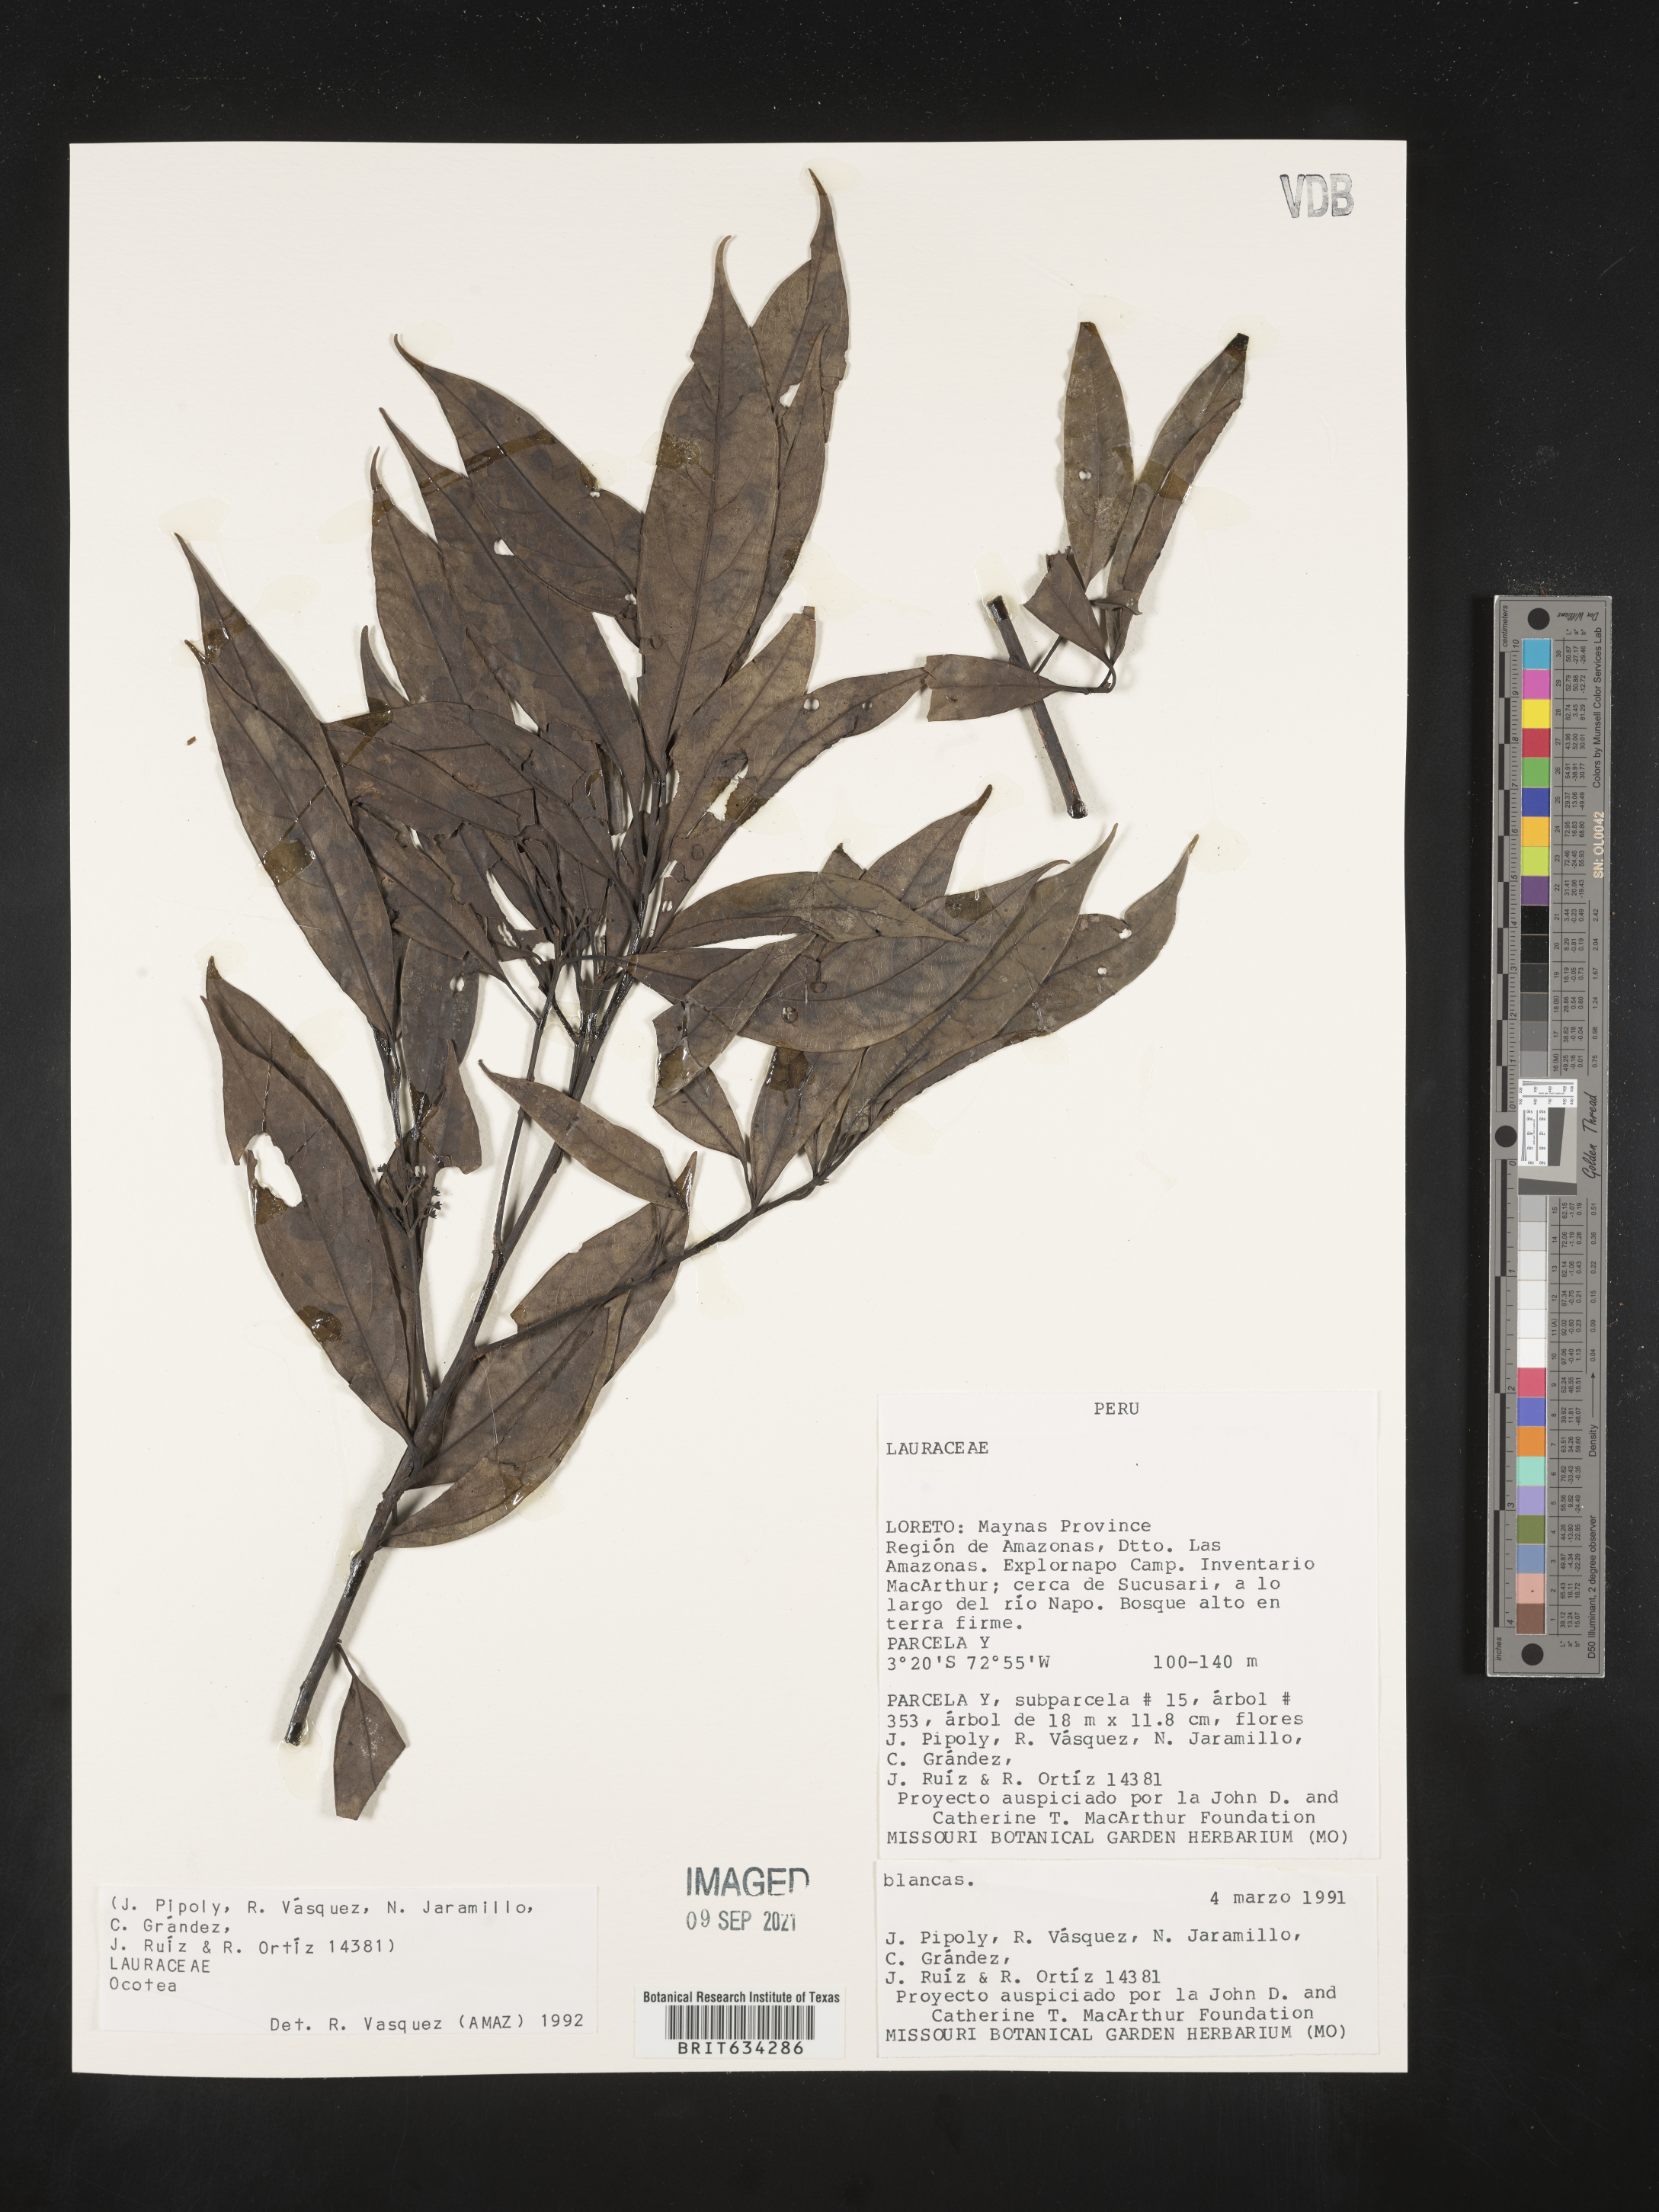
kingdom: Plantae
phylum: Tracheophyta
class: Magnoliopsida
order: Laurales
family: Lauraceae
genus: Ocotea
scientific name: Ocotea
